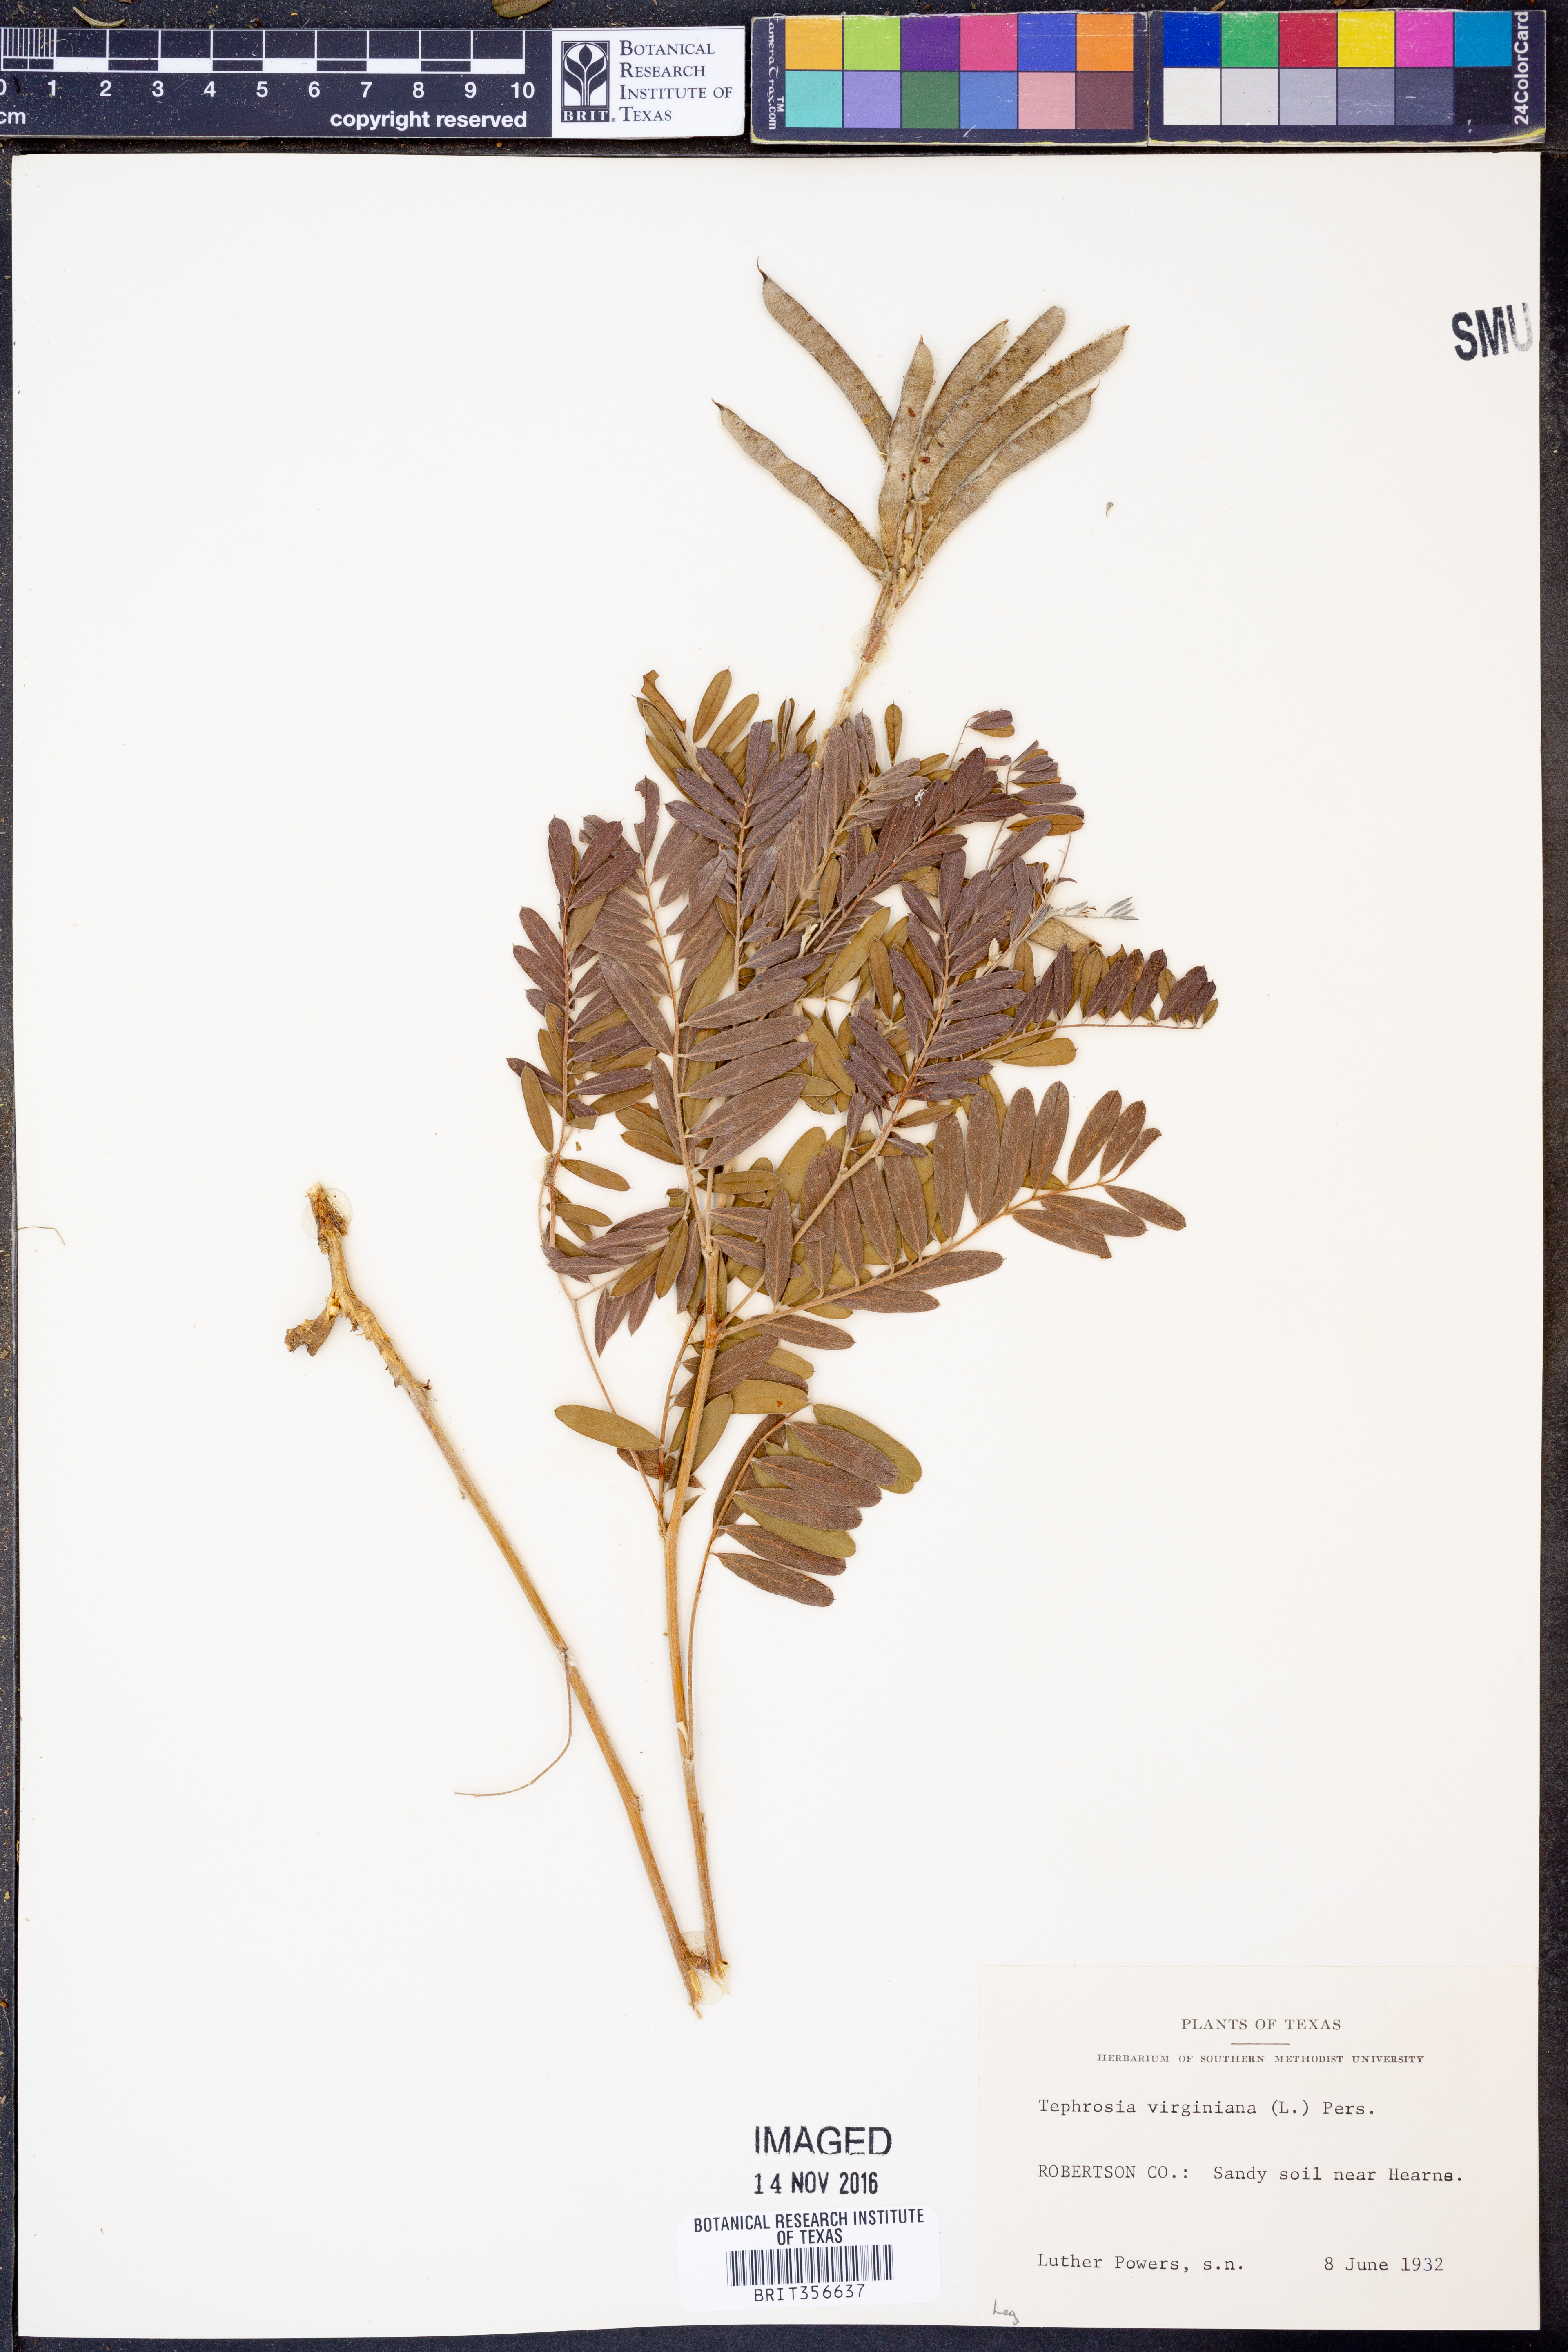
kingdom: Plantae
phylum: Tracheophyta
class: Magnoliopsida
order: Fabales
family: Fabaceae
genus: Tephrosia
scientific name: Tephrosia virginiana
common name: Rabbit-pea
